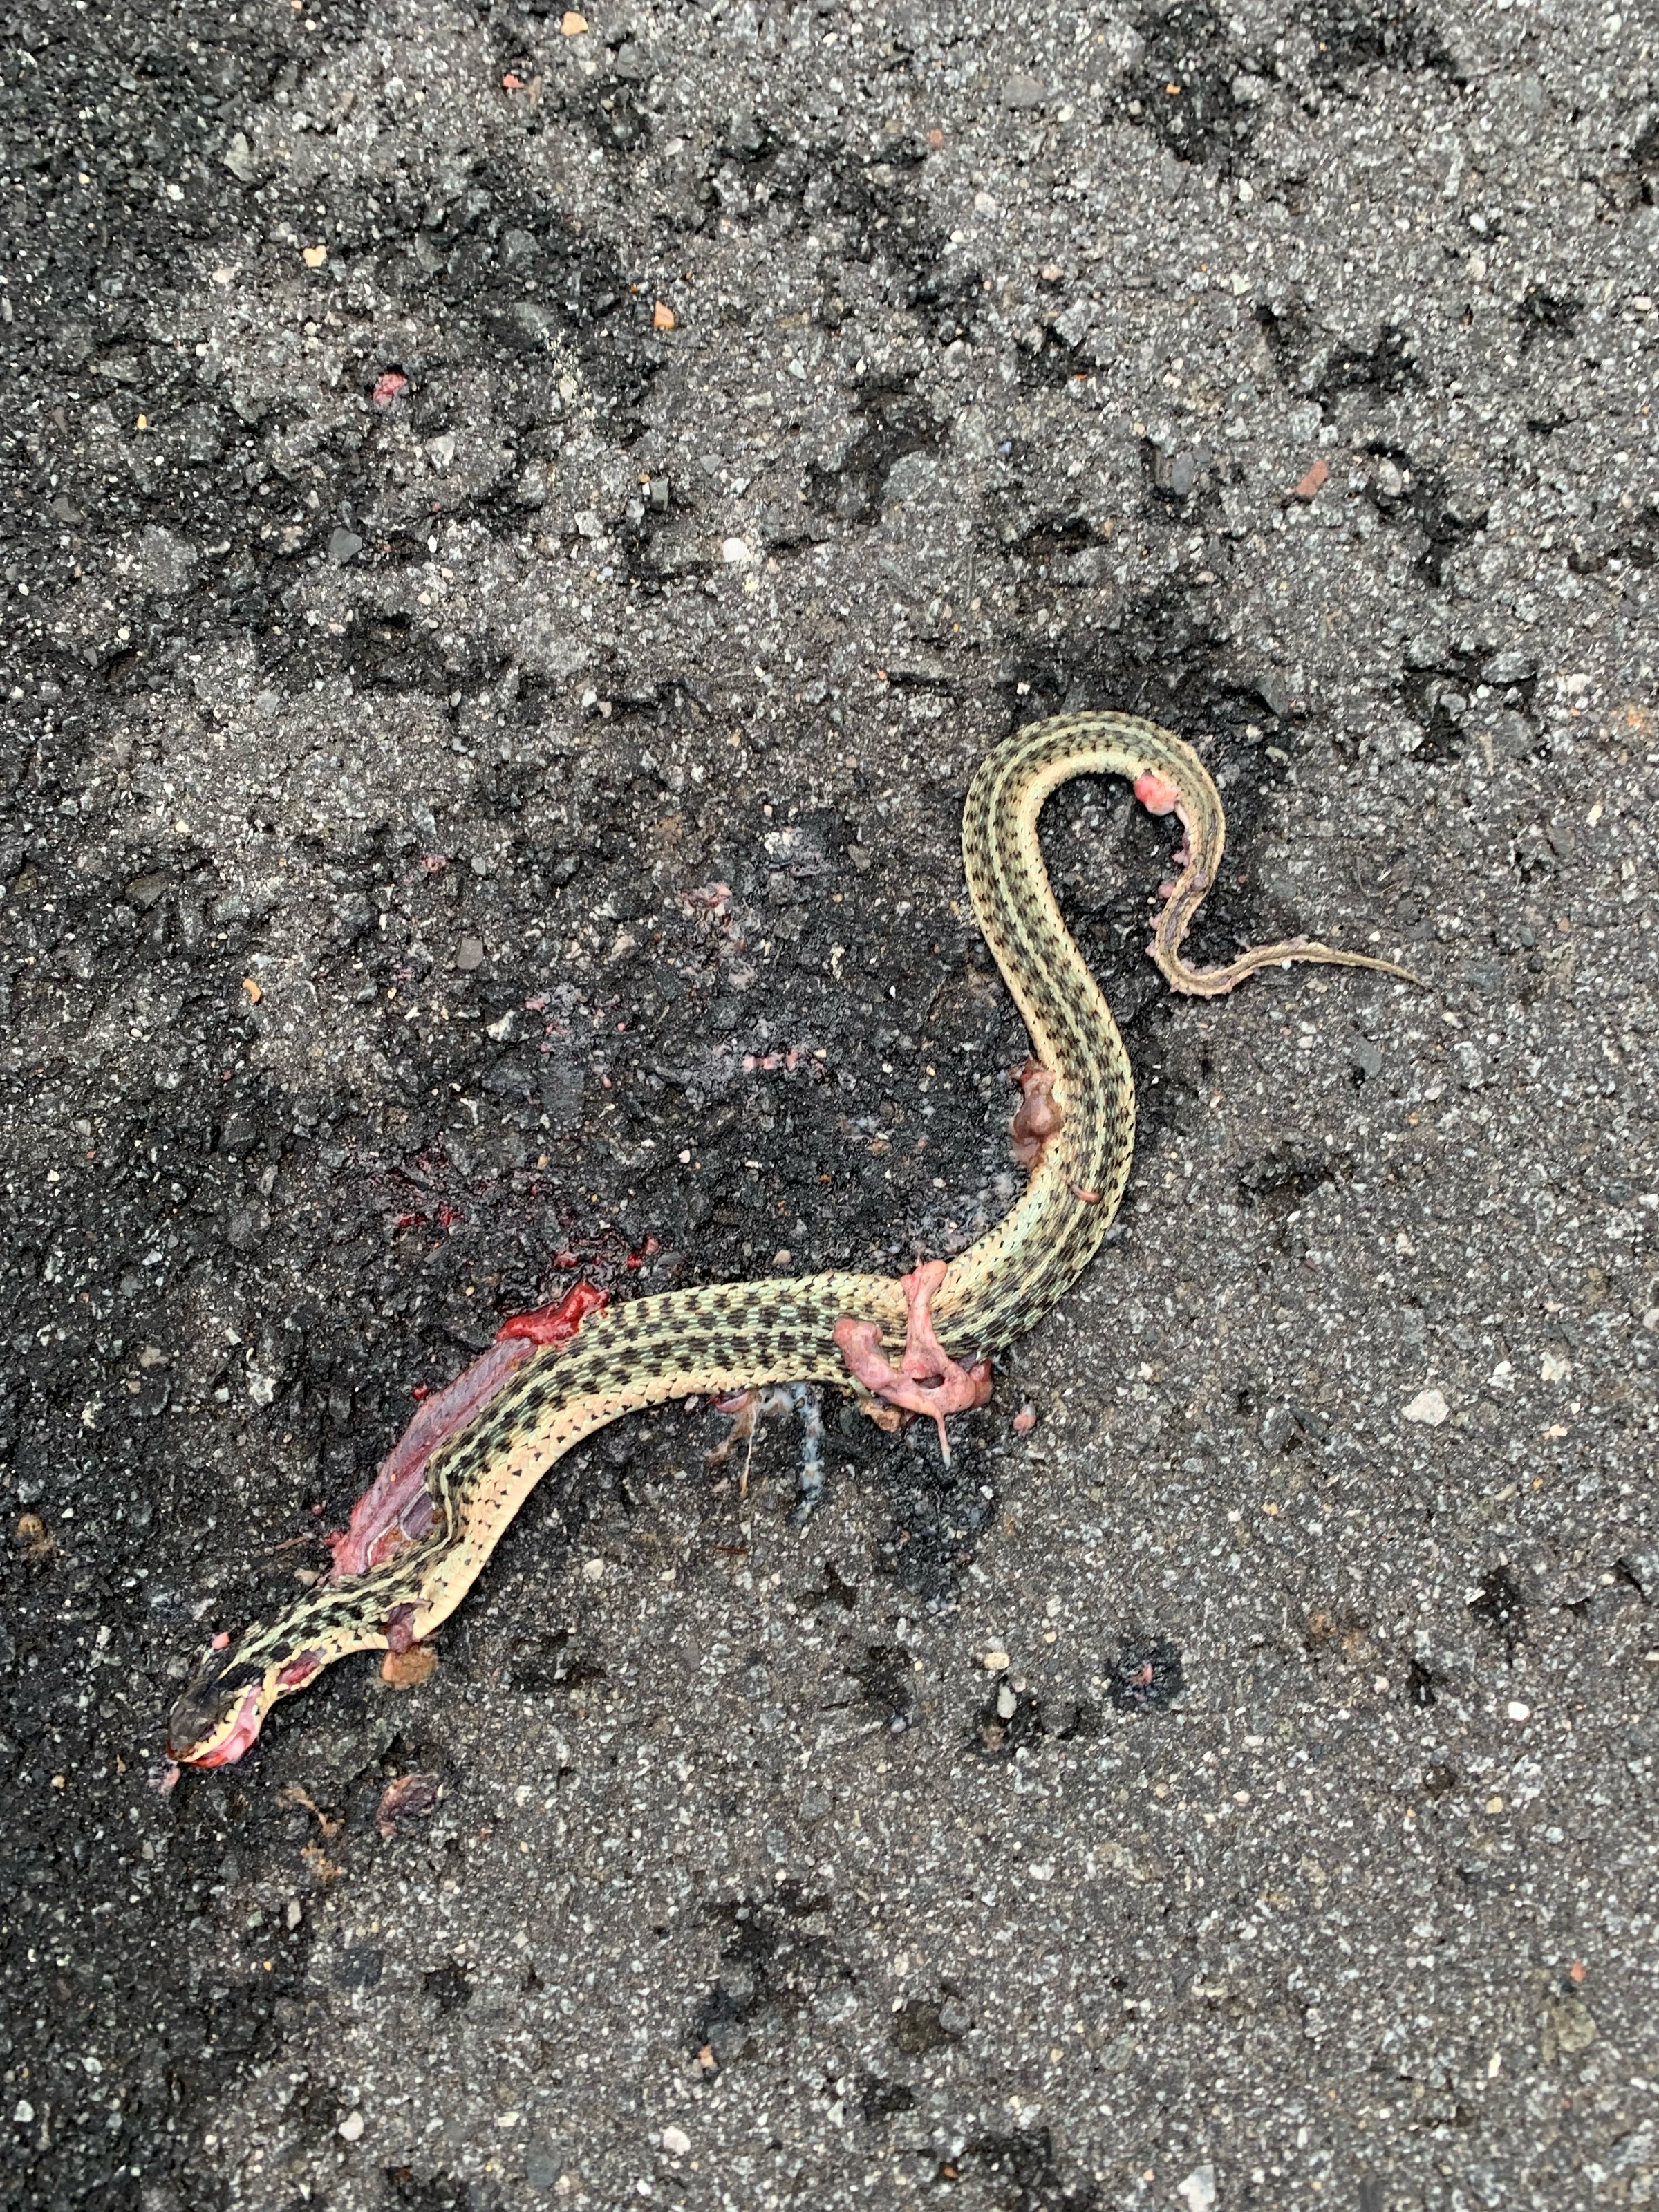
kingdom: Animalia
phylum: Chordata
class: Squamata
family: Colubridae
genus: Thamnophis
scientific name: Thamnophis sirtalis
